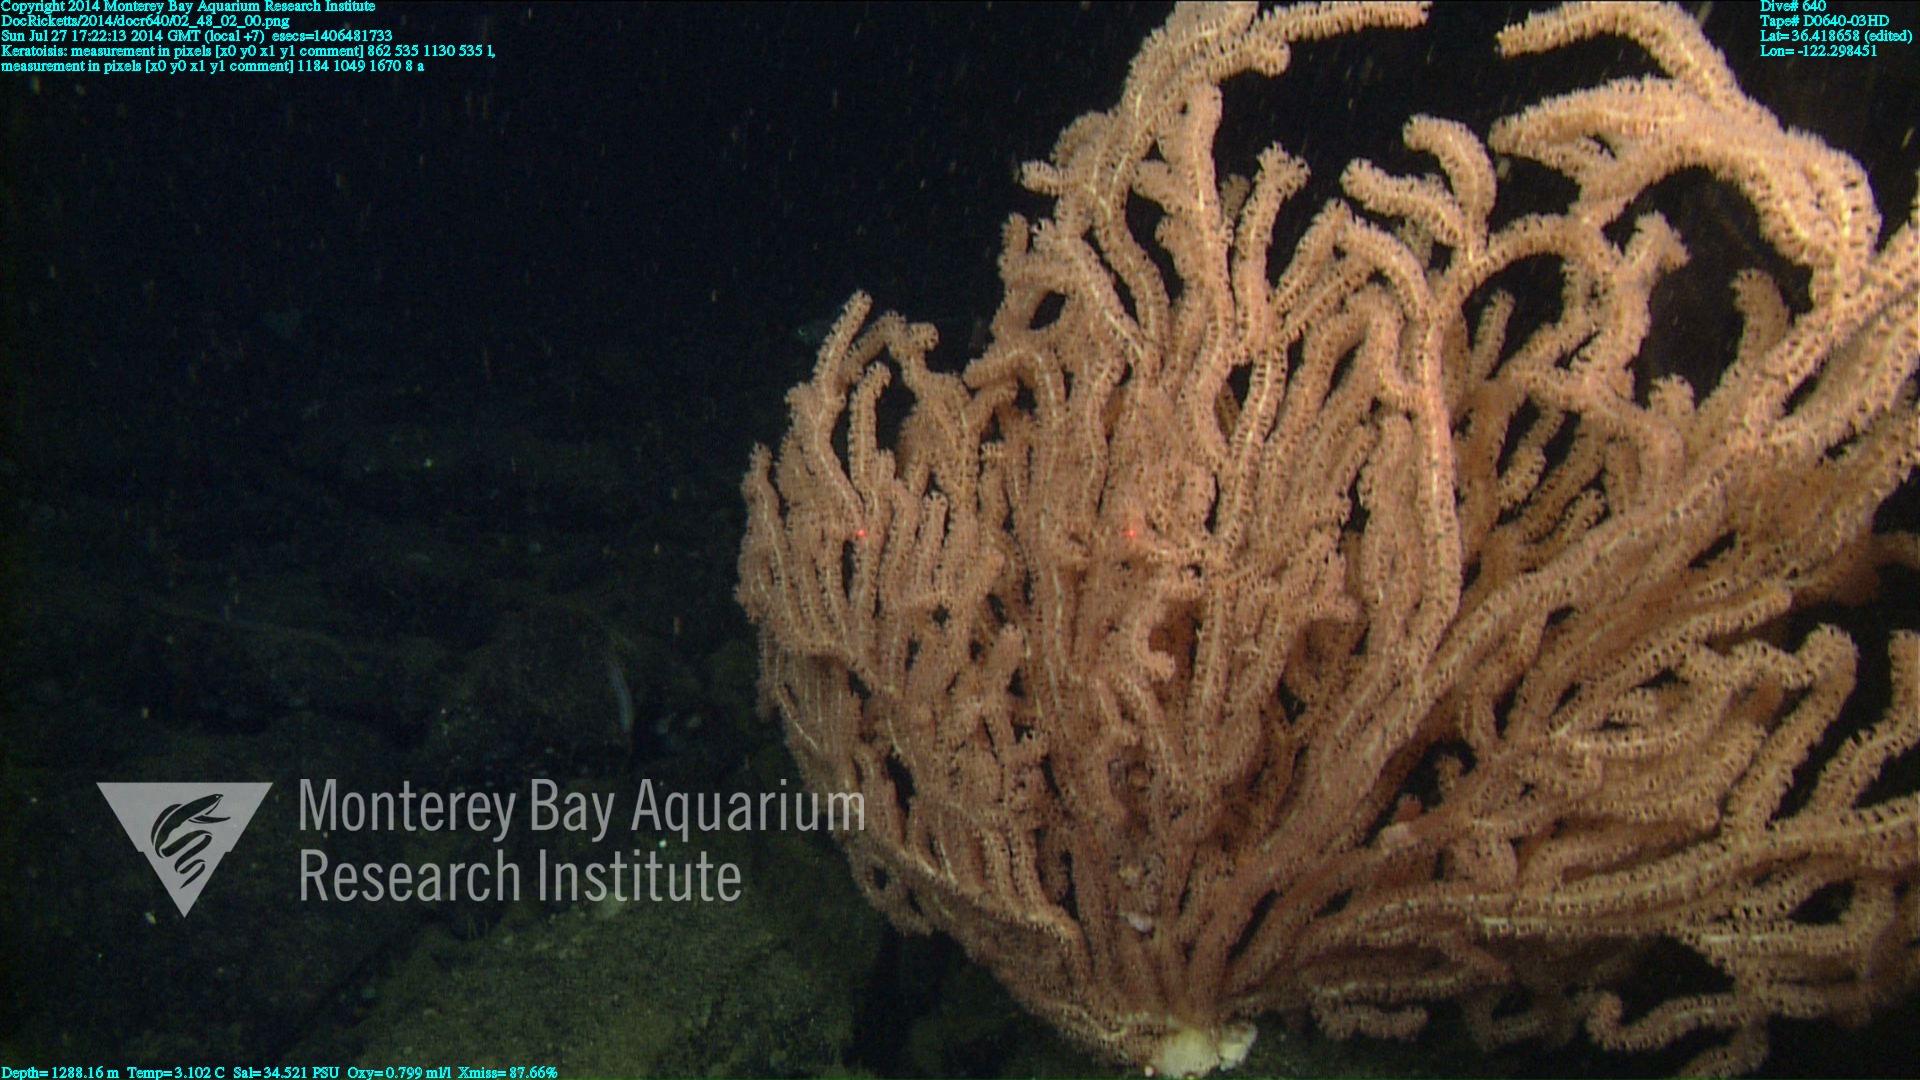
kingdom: Animalia
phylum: Cnidaria
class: Anthozoa
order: Scleralcyonacea
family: Keratoisididae
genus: Keratoisis
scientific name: Keratoisis
